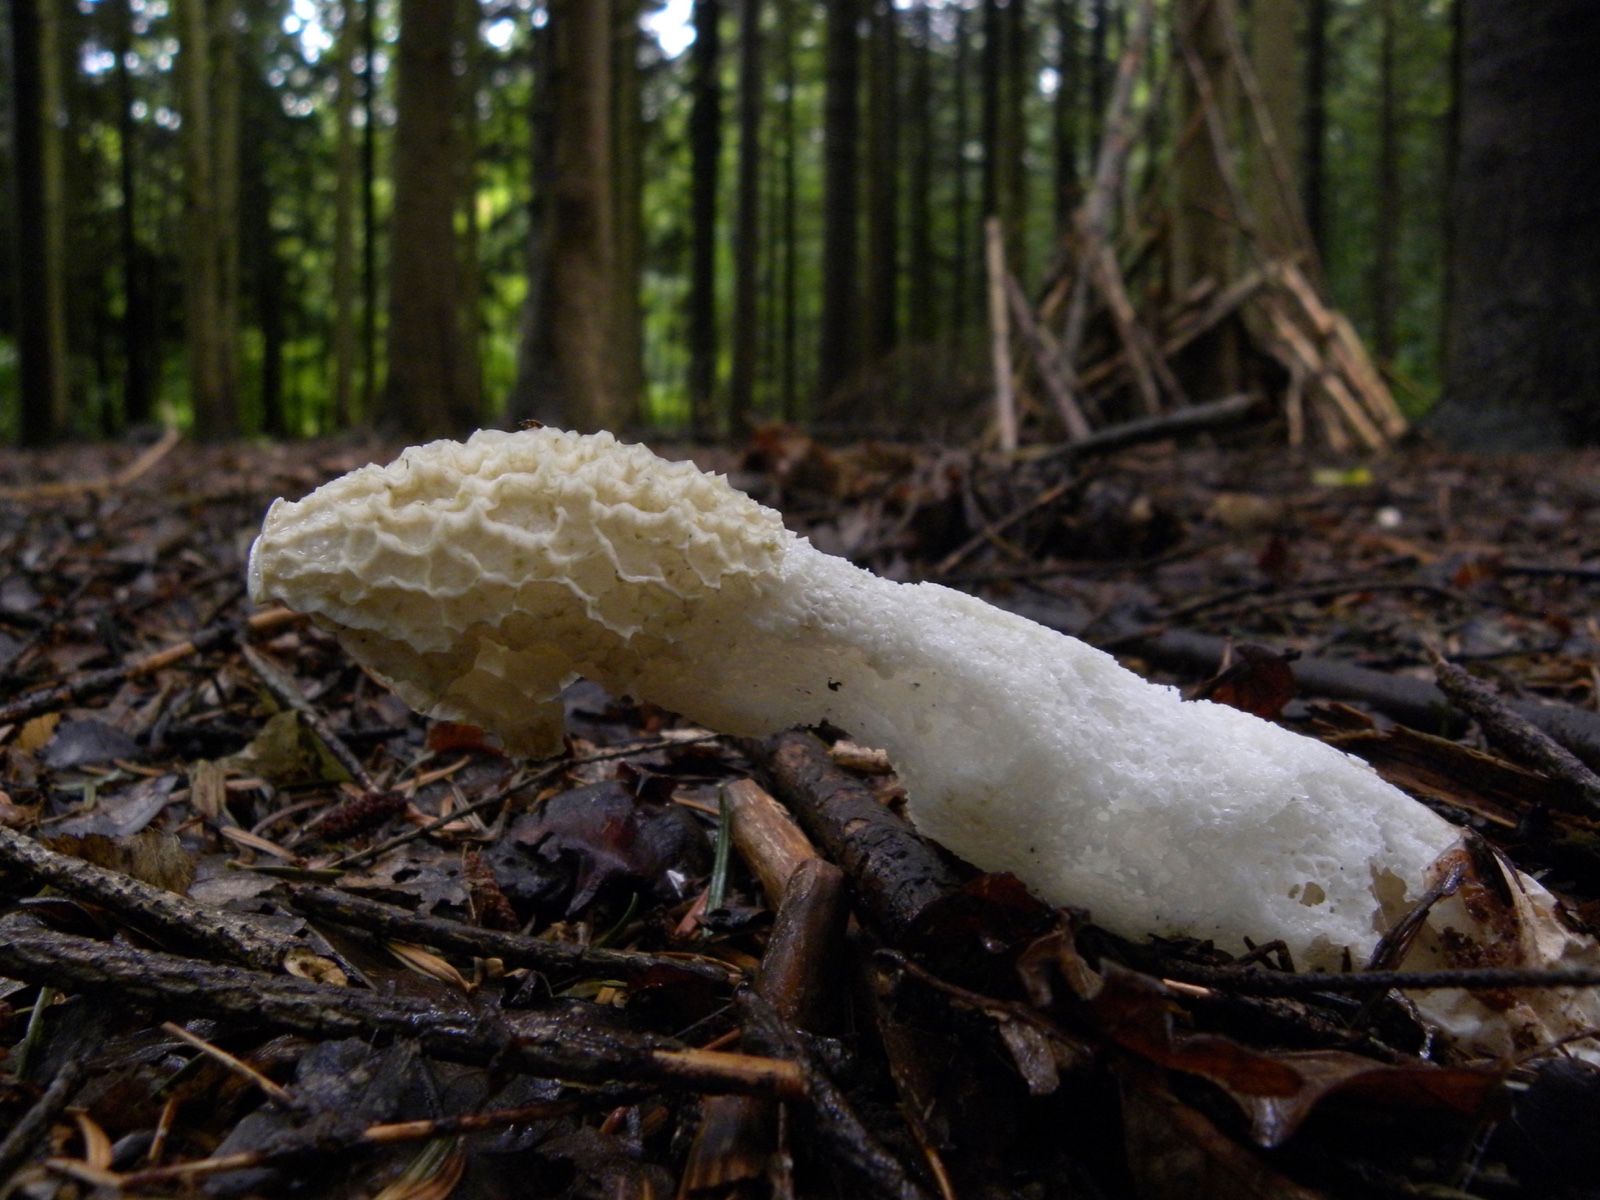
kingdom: Fungi
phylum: Basidiomycota
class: Agaricomycetes
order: Phallales
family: Phallaceae
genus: Phallus
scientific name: Phallus impudicus
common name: almindelig stinksvamp
